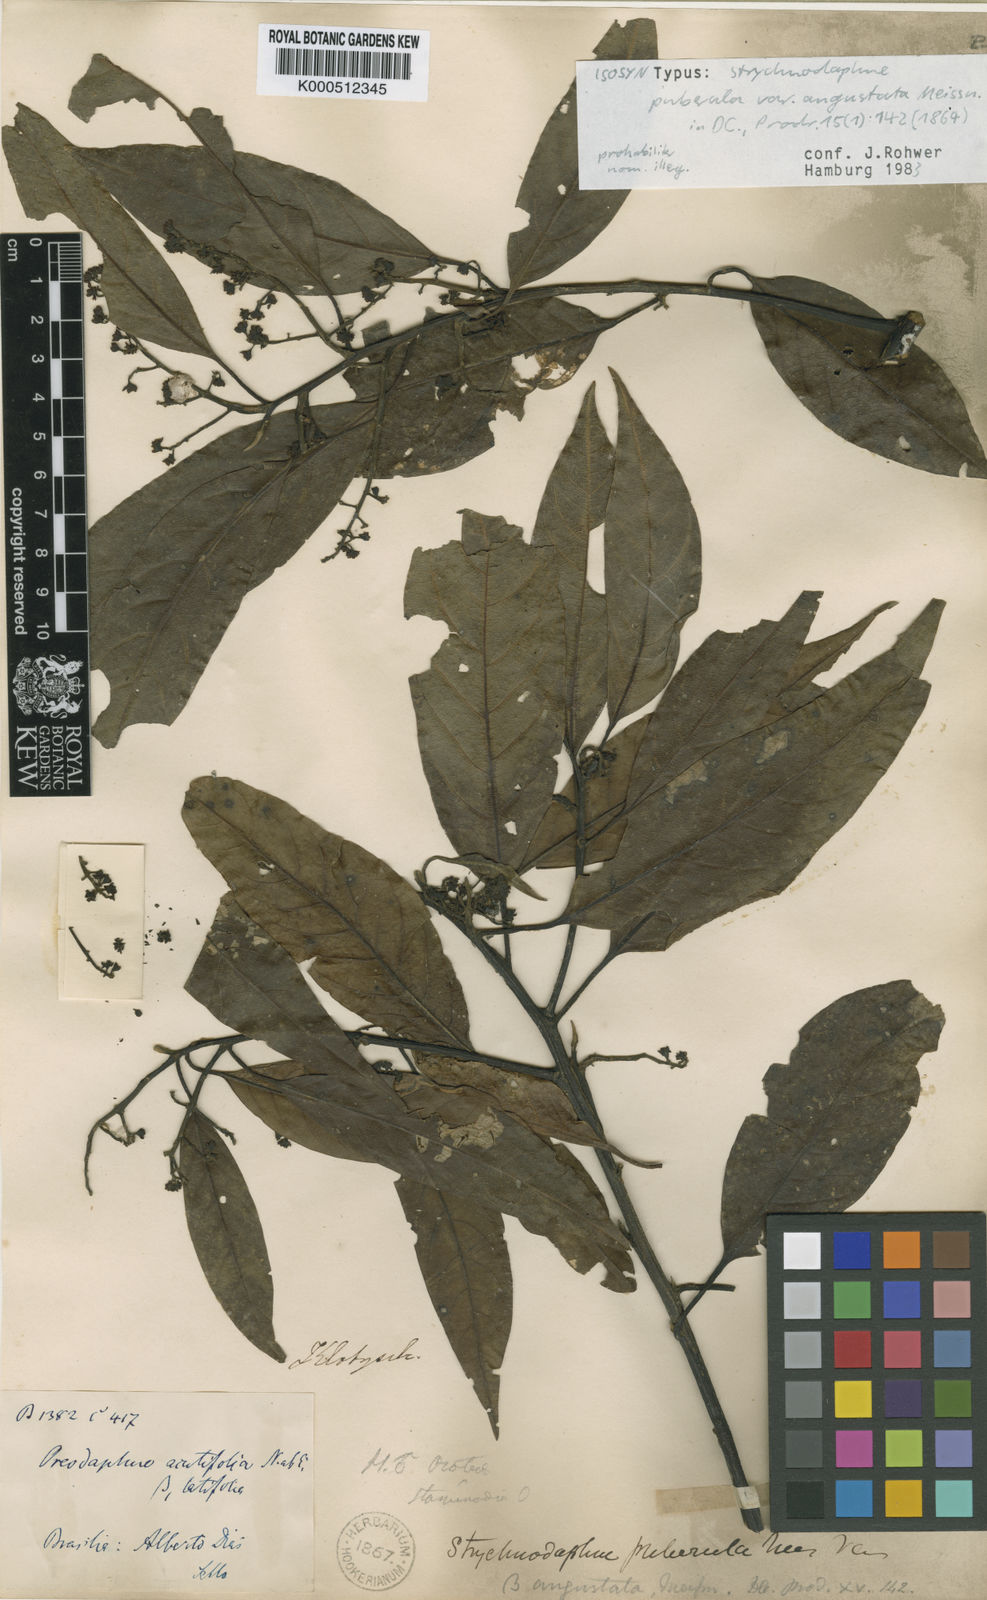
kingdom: Plantae
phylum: Tracheophyta
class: Magnoliopsida
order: Laurales
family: Lauraceae
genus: Ocotea
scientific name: Ocotea puberula
